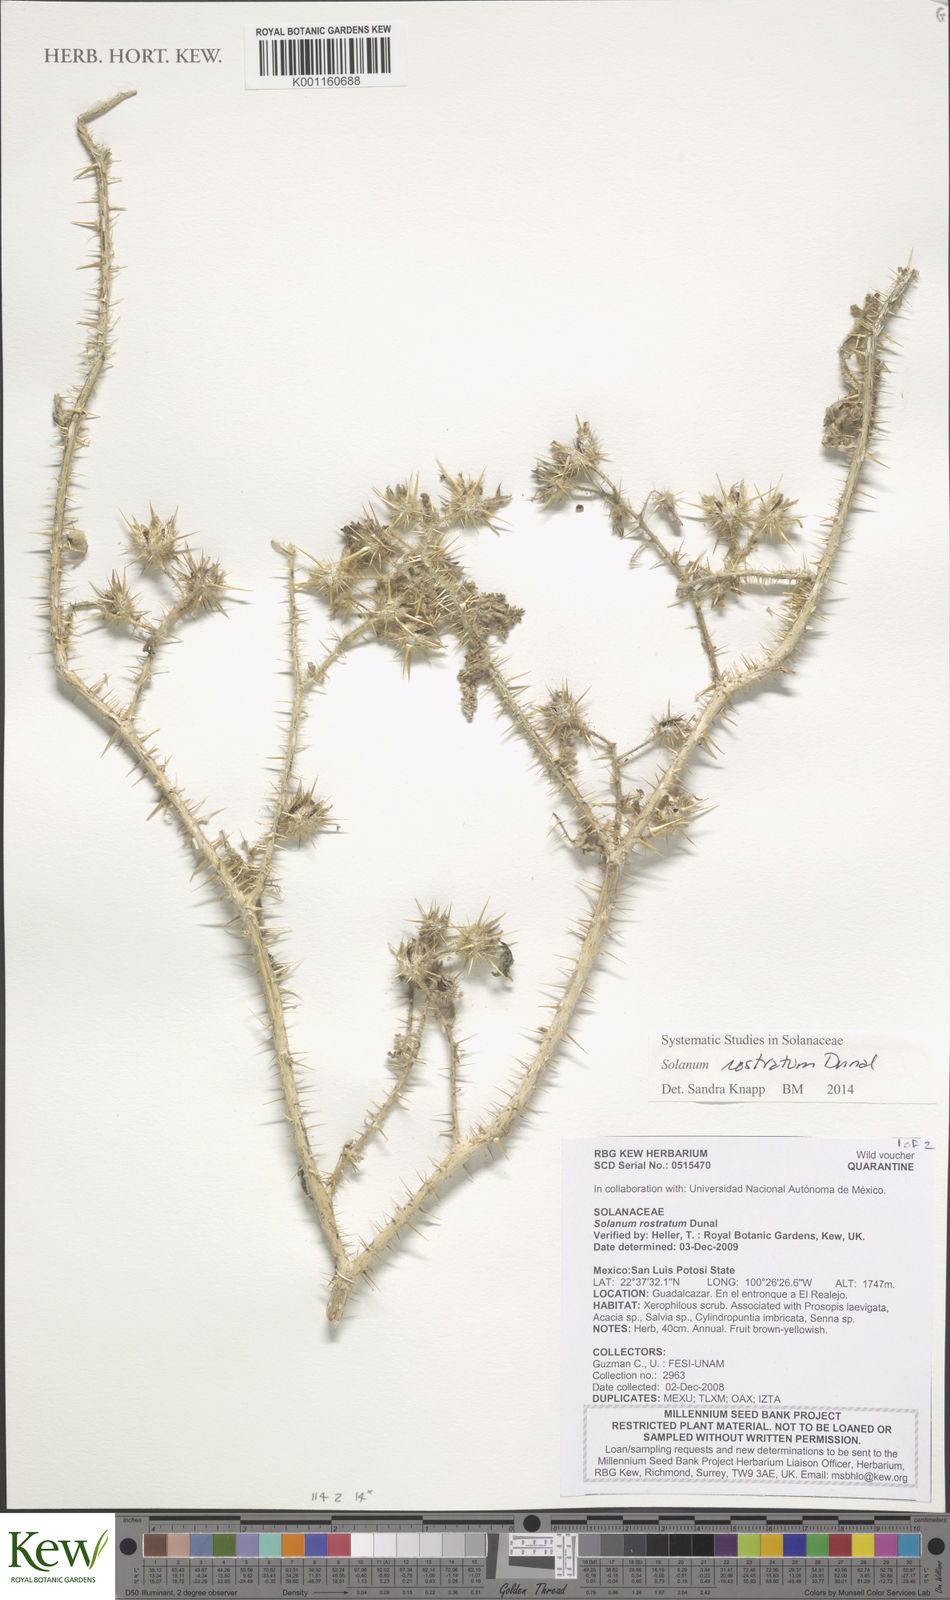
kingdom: Plantae
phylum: Tracheophyta
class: Magnoliopsida
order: Solanales
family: Solanaceae
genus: Solanum
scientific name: Solanum angustifolium
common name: Buffalobur nightshade
